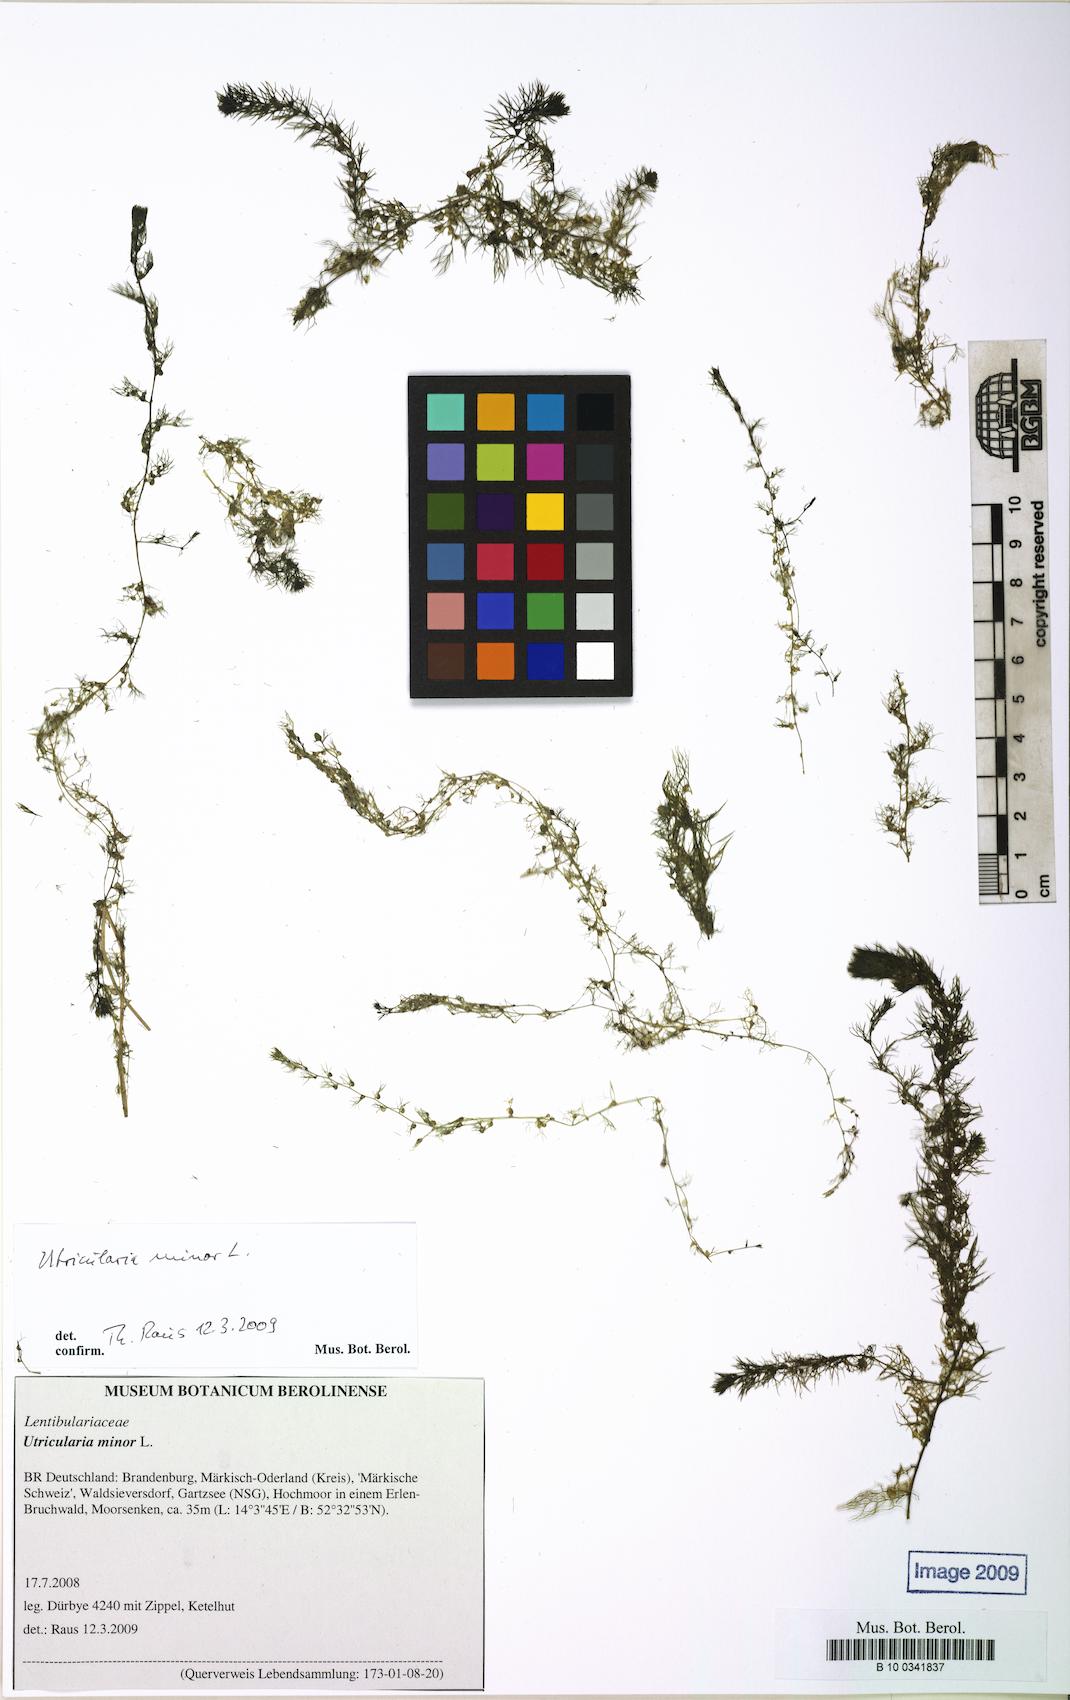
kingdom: Plantae
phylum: Tracheophyta
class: Magnoliopsida
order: Lamiales
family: Lentibulariaceae
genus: Utricularia
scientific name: Utricularia minor
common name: Lesser bladderwort
